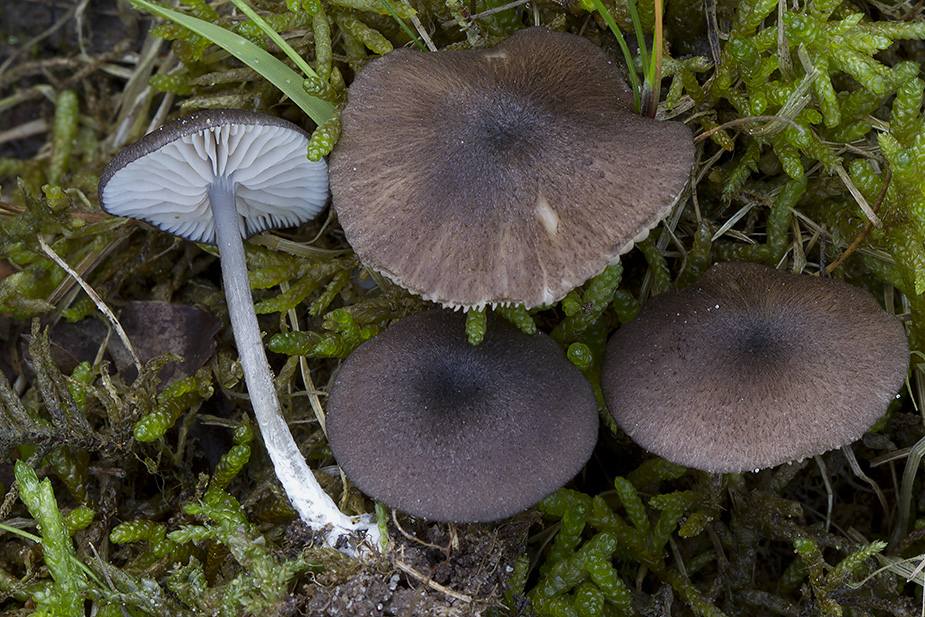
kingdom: Fungi
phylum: Basidiomycota
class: Agaricomycetes
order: Agaricales
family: Entolomataceae
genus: Entoloma
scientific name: Entoloma porphyrogriseum
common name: porfyrgrå rødblad
